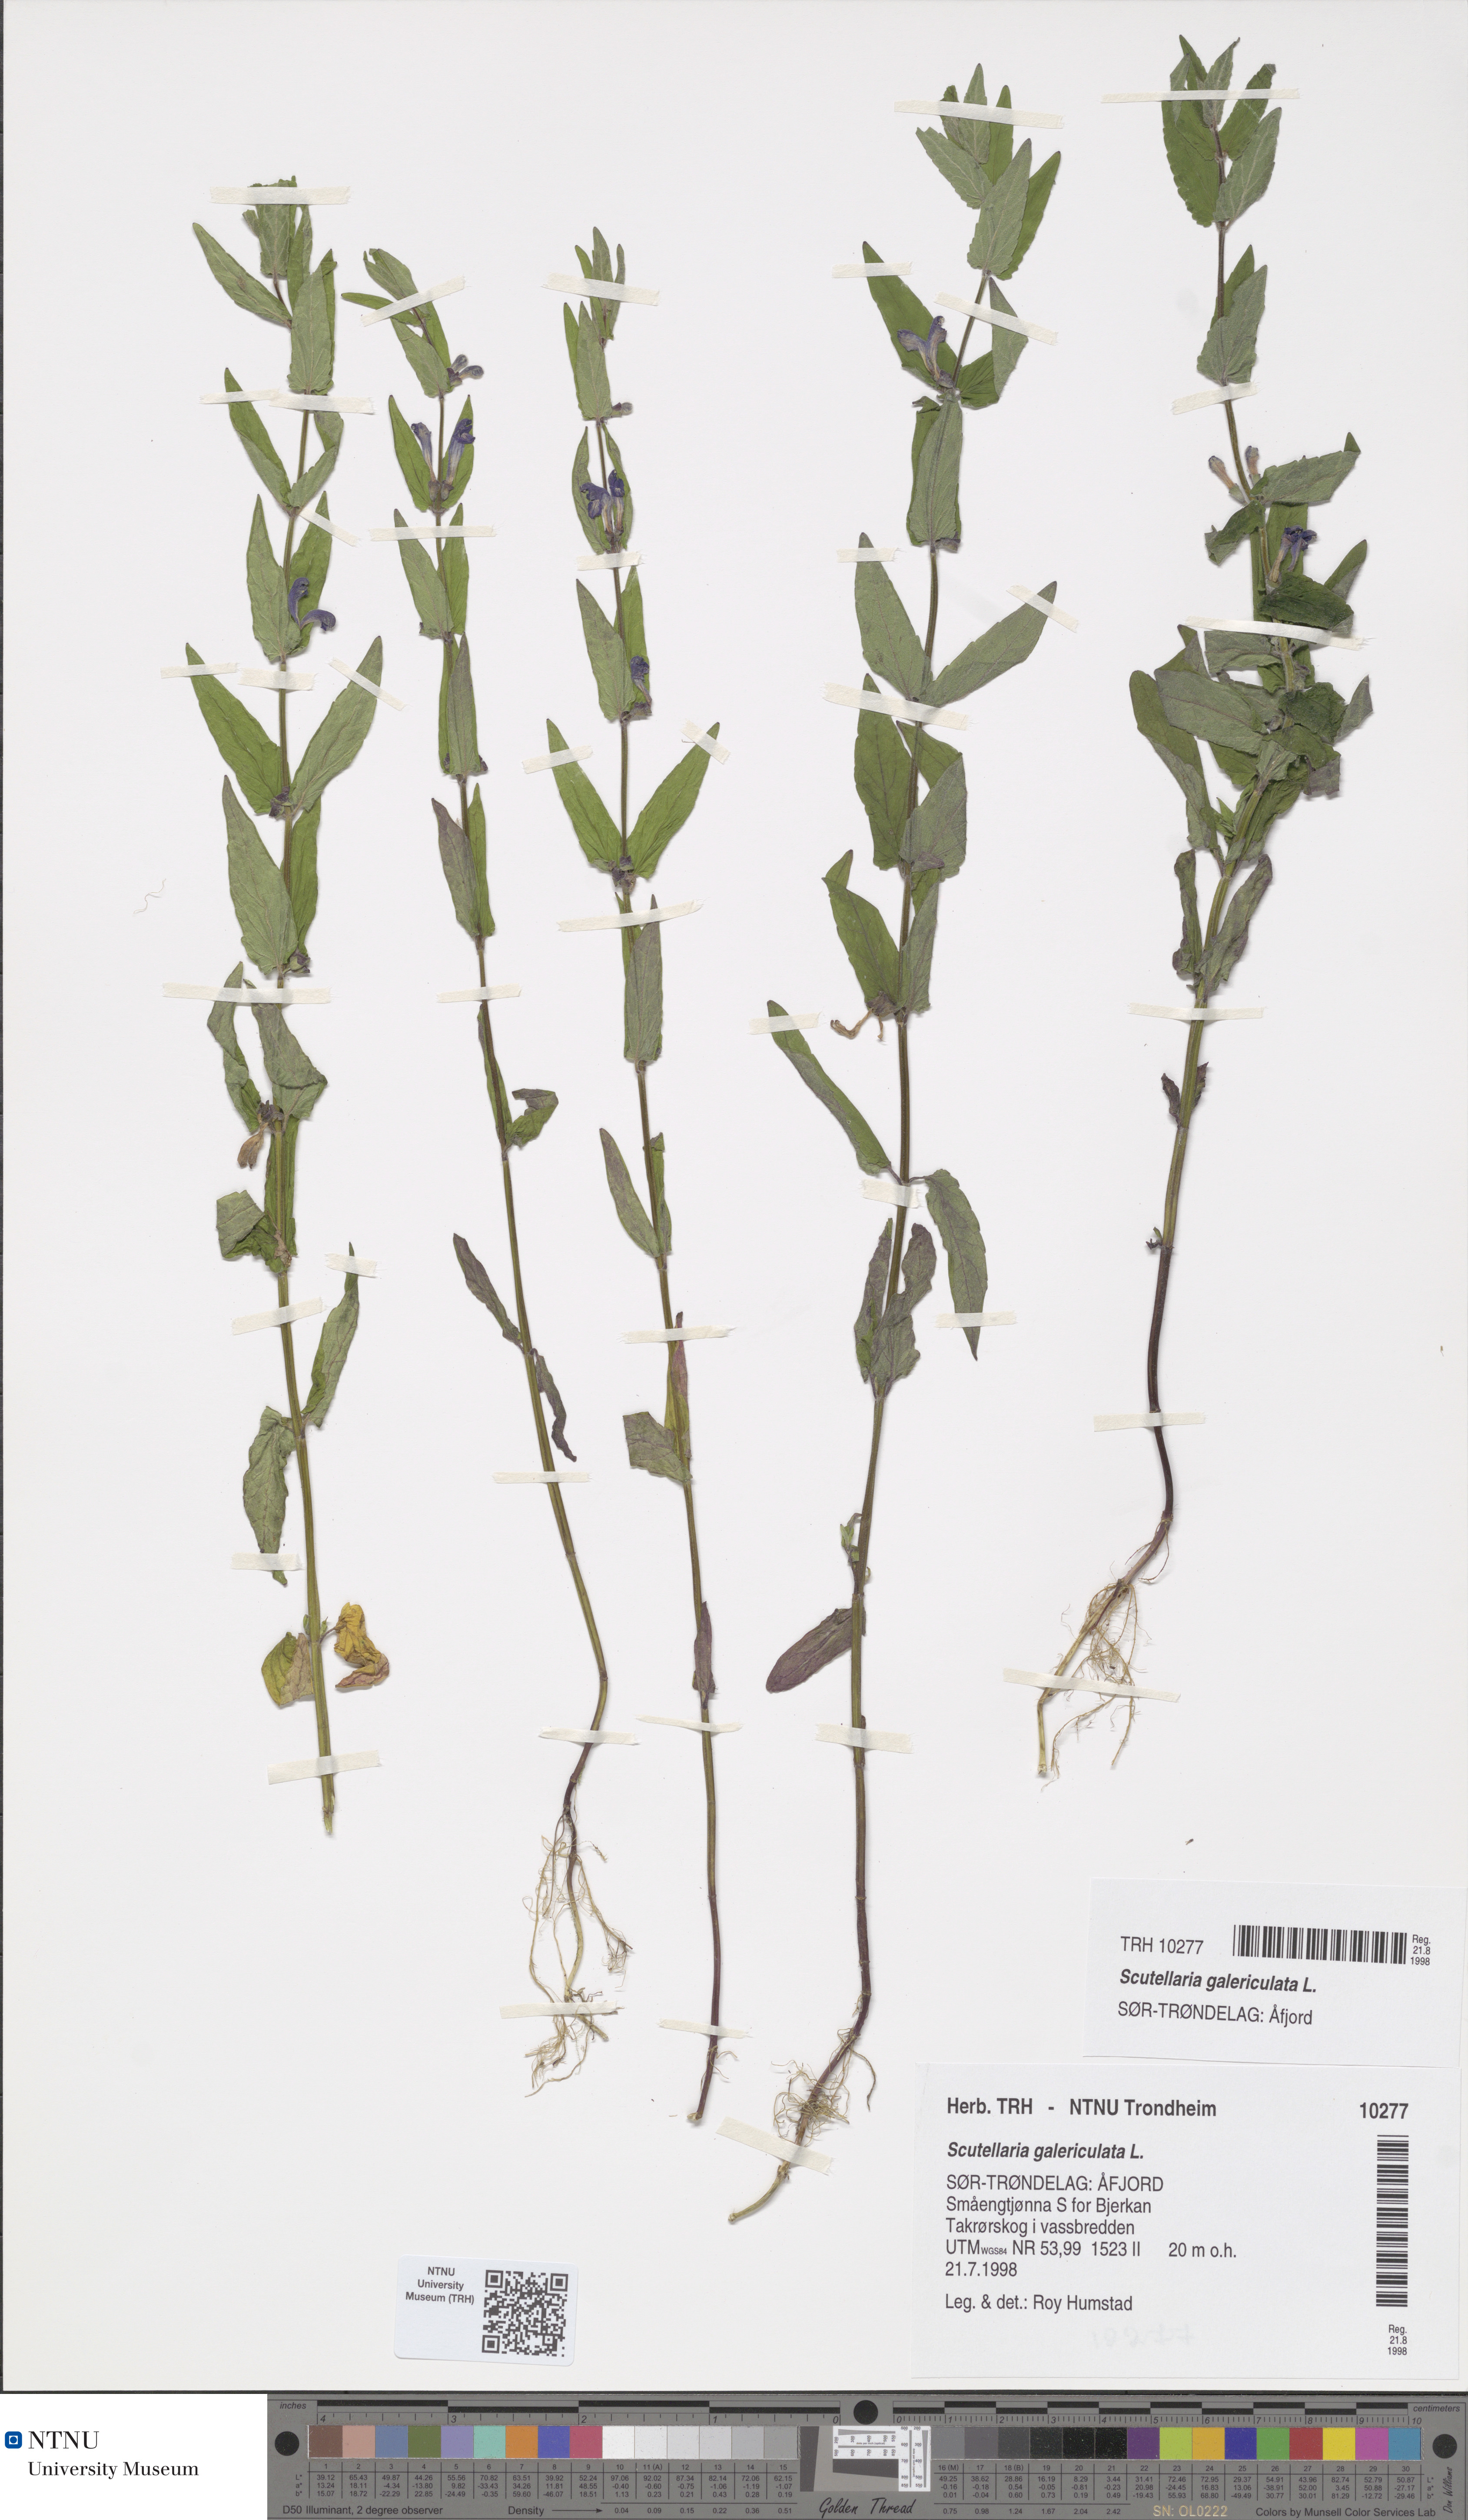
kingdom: Plantae
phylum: Tracheophyta
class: Magnoliopsida
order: Lamiales
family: Lamiaceae
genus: Scutellaria
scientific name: Scutellaria galericulata
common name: Skullcap
